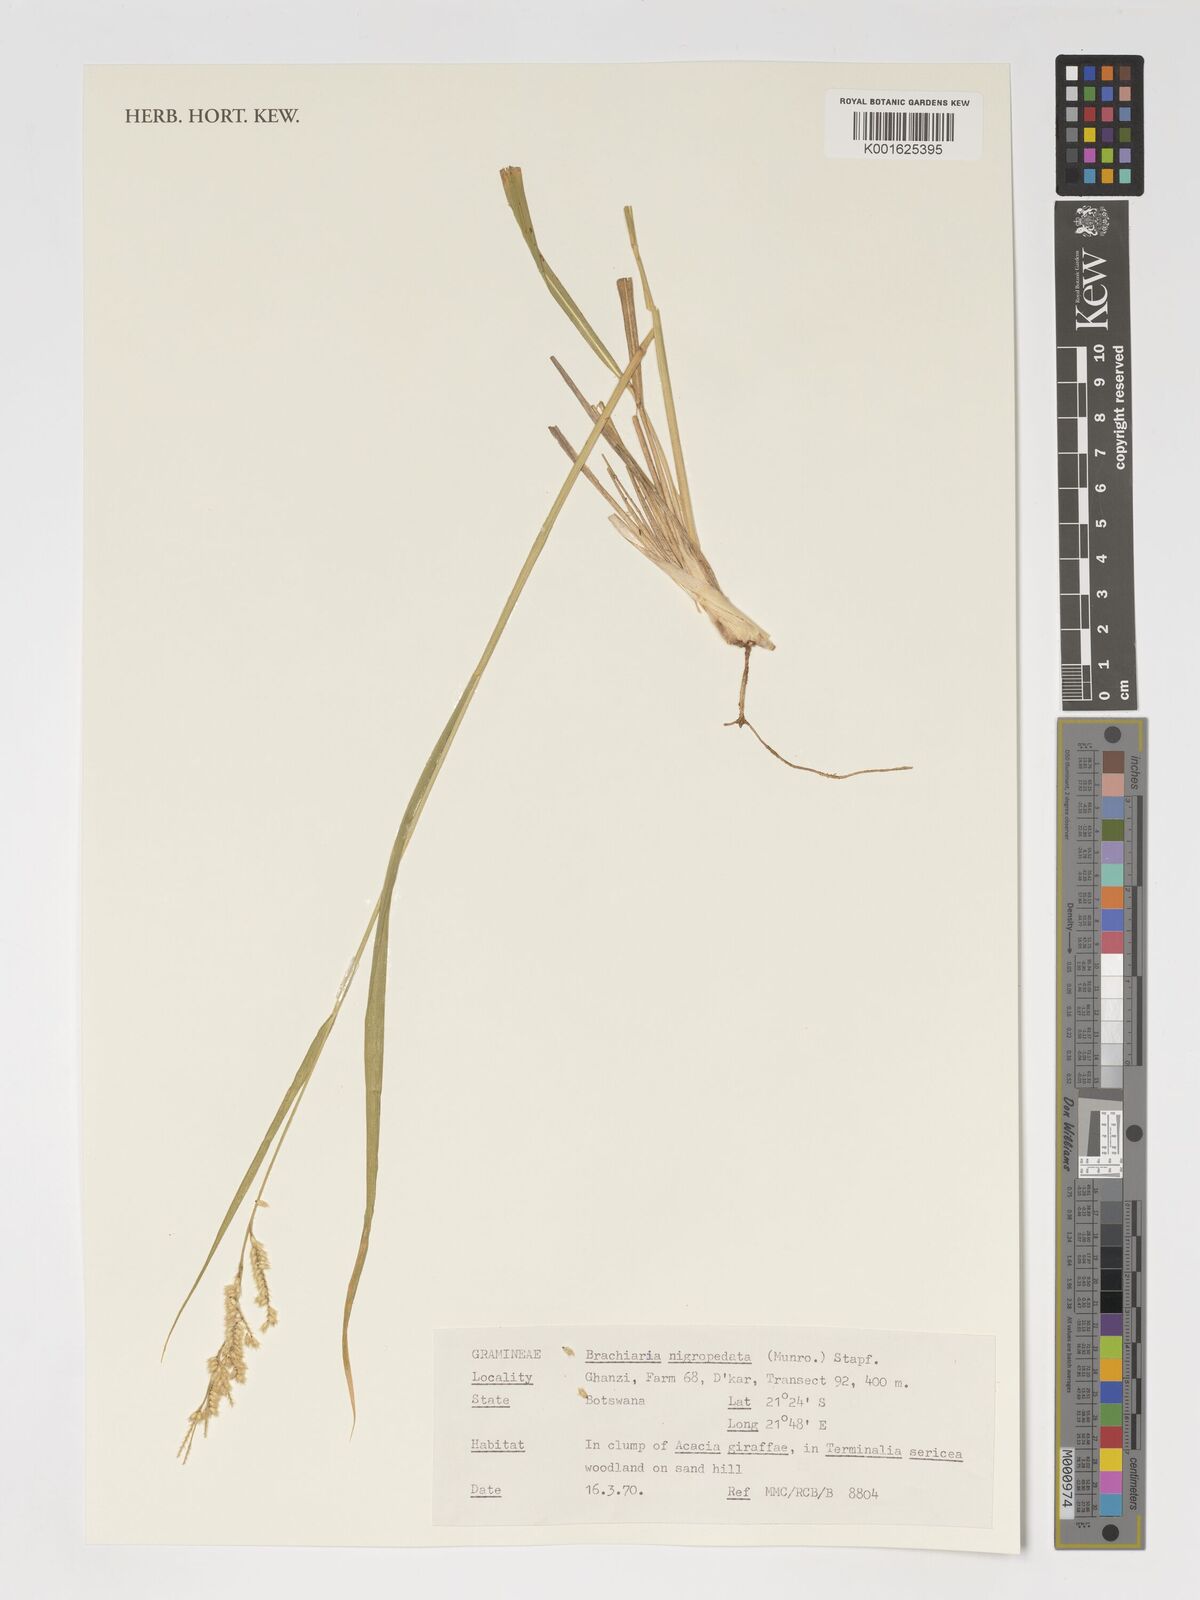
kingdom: Plantae
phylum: Tracheophyta
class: Liliopsida
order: Poales
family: Poaceae
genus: Urochloa
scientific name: Urochloa nigropedata
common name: Spotted signal grass
